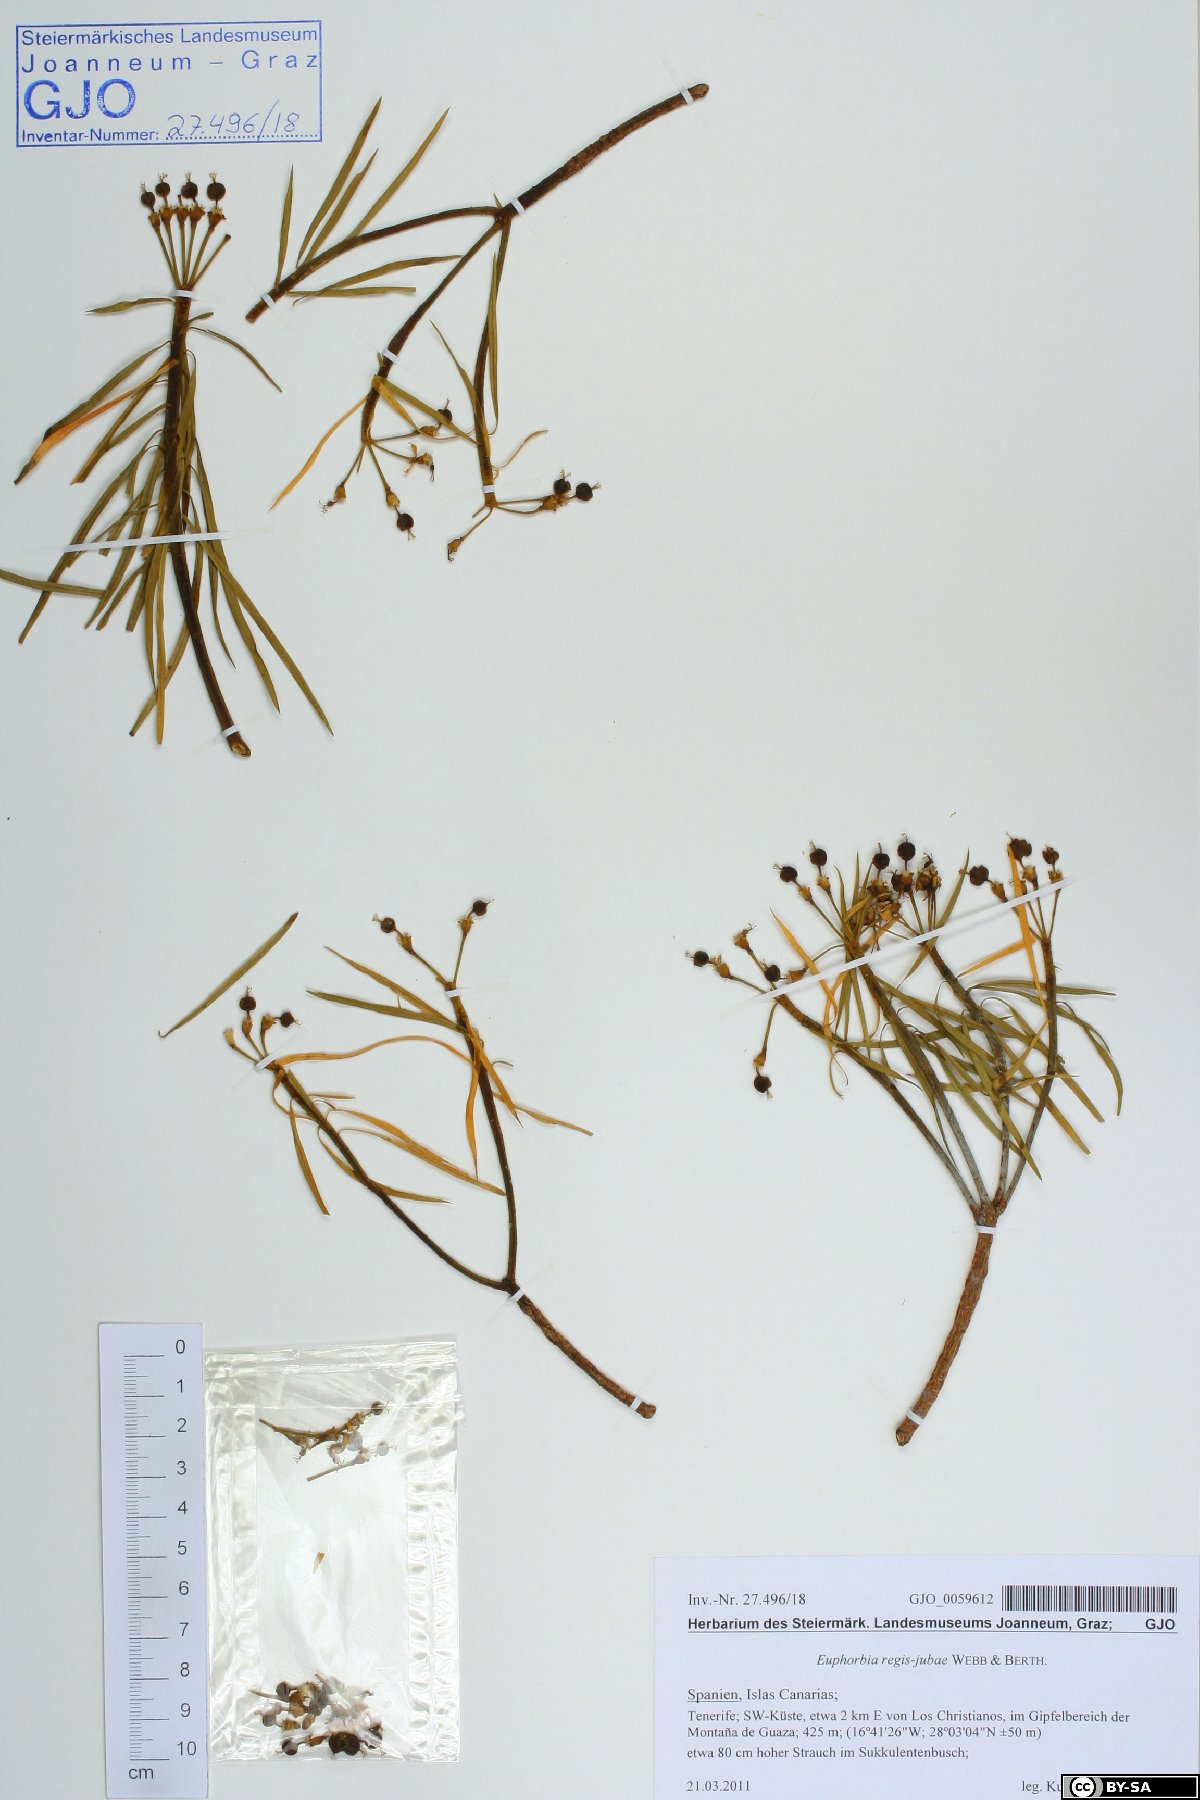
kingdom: Plantae
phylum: Tracheophyta
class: Magnoliopsida
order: Malpighiales
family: Euphorbiaceae
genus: Euphorbia
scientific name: Euphorbia regis-jubae
